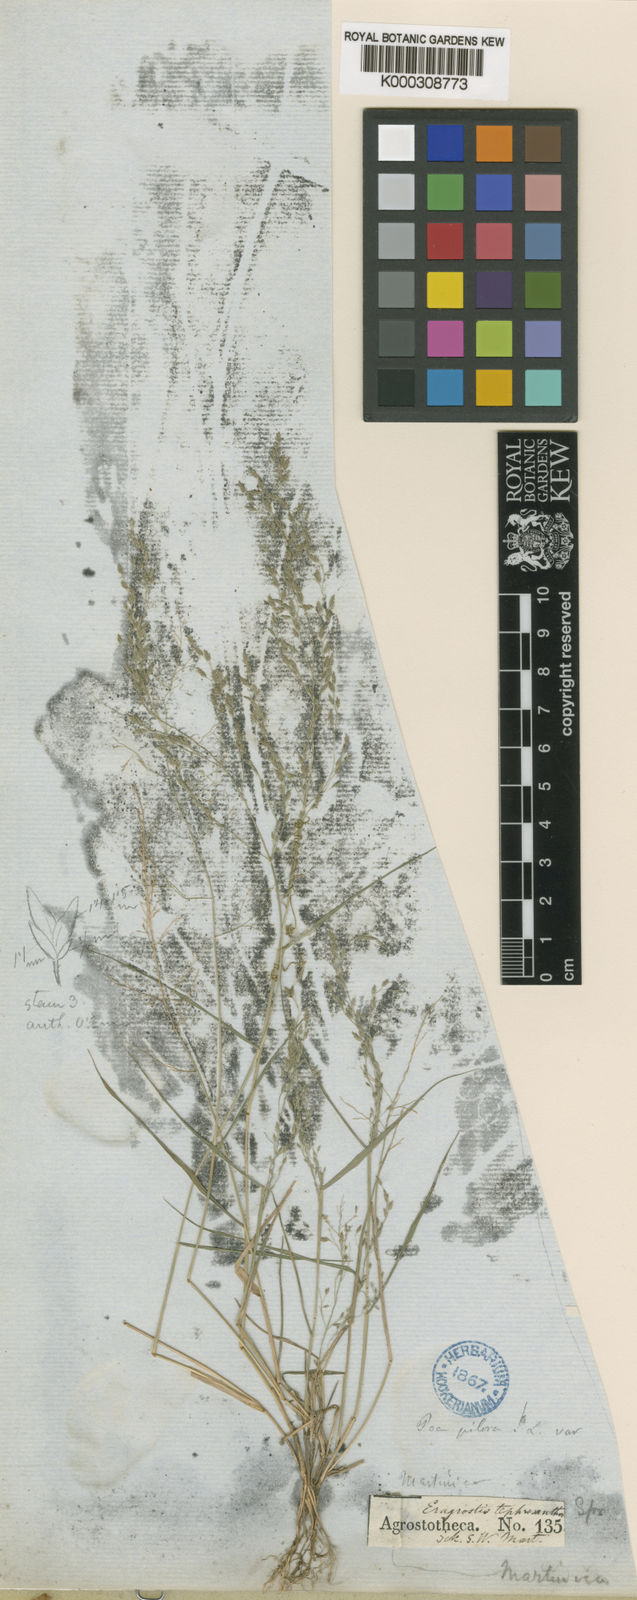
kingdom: Plantae
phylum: Tracheophyta
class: Liliopsida
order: Poales
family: Poaceae
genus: Eragrostis
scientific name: Eragrostis tephrosanthos
